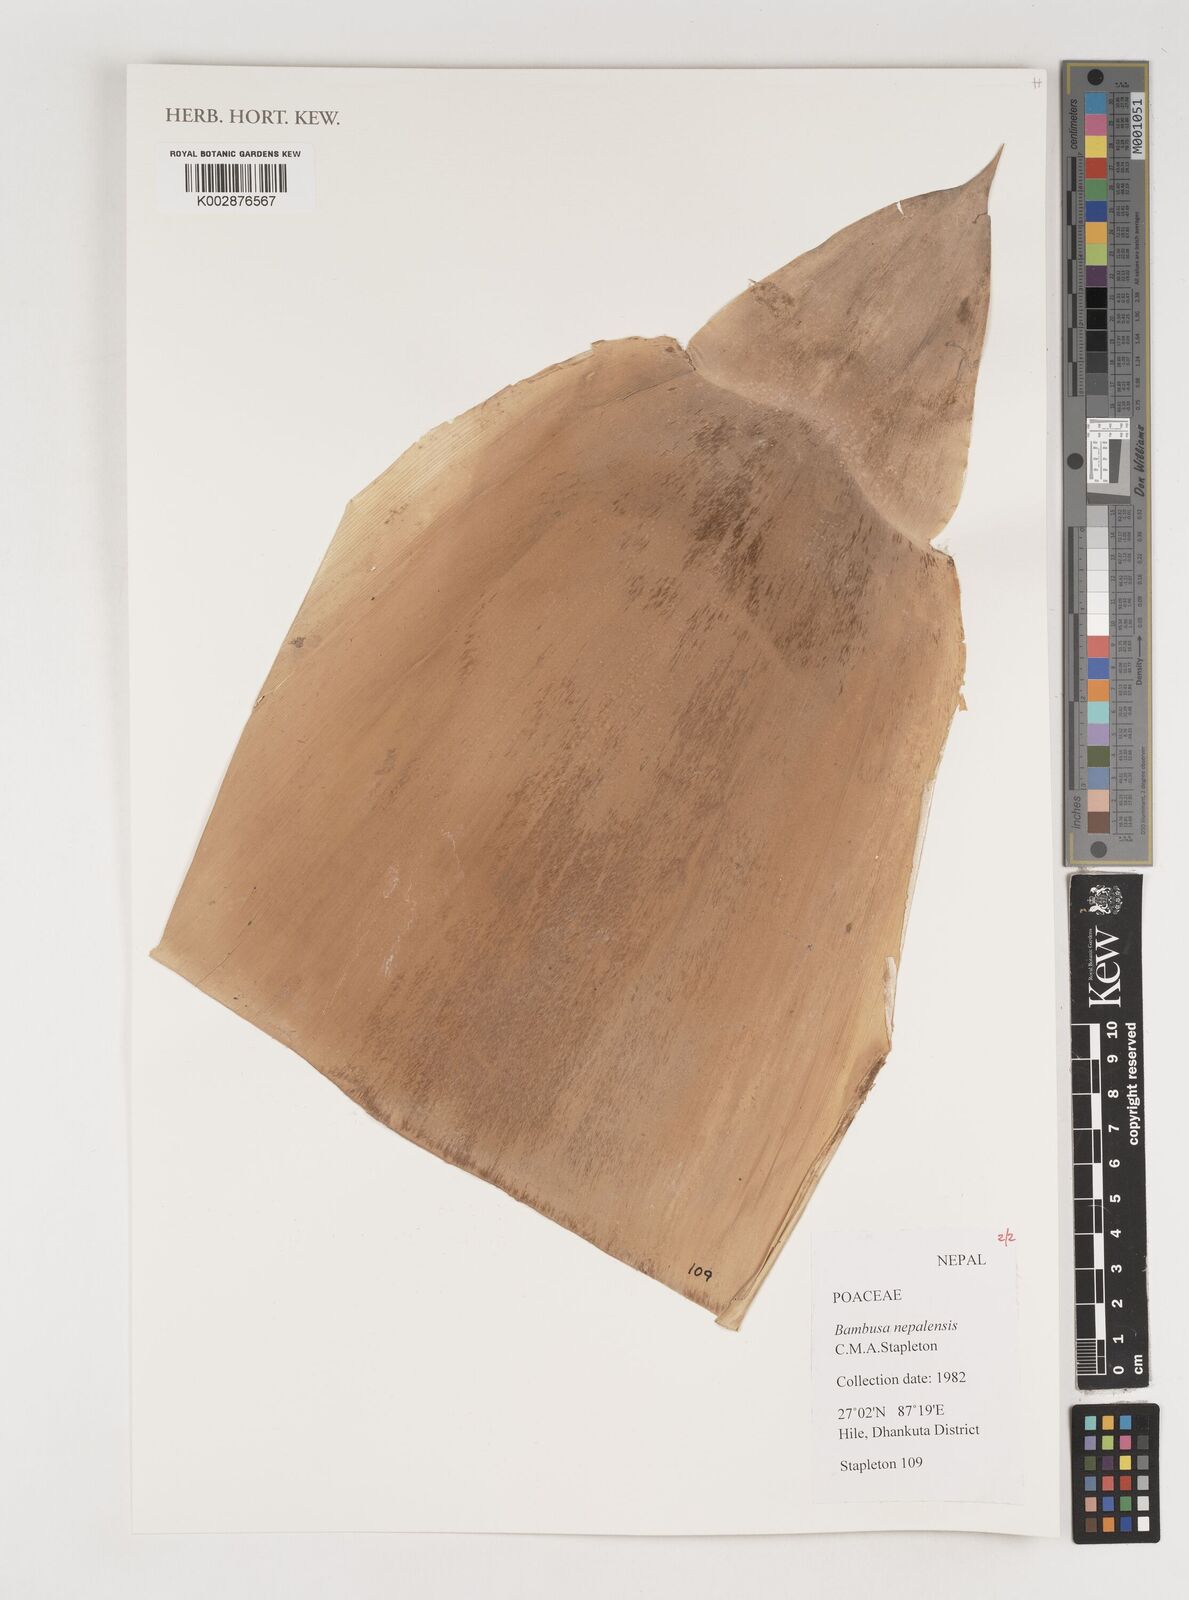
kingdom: Plantae
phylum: Tracheophyta
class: Liliopsida
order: Poales
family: Poaceae
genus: Bambusa
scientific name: Bambusa nepalensis
